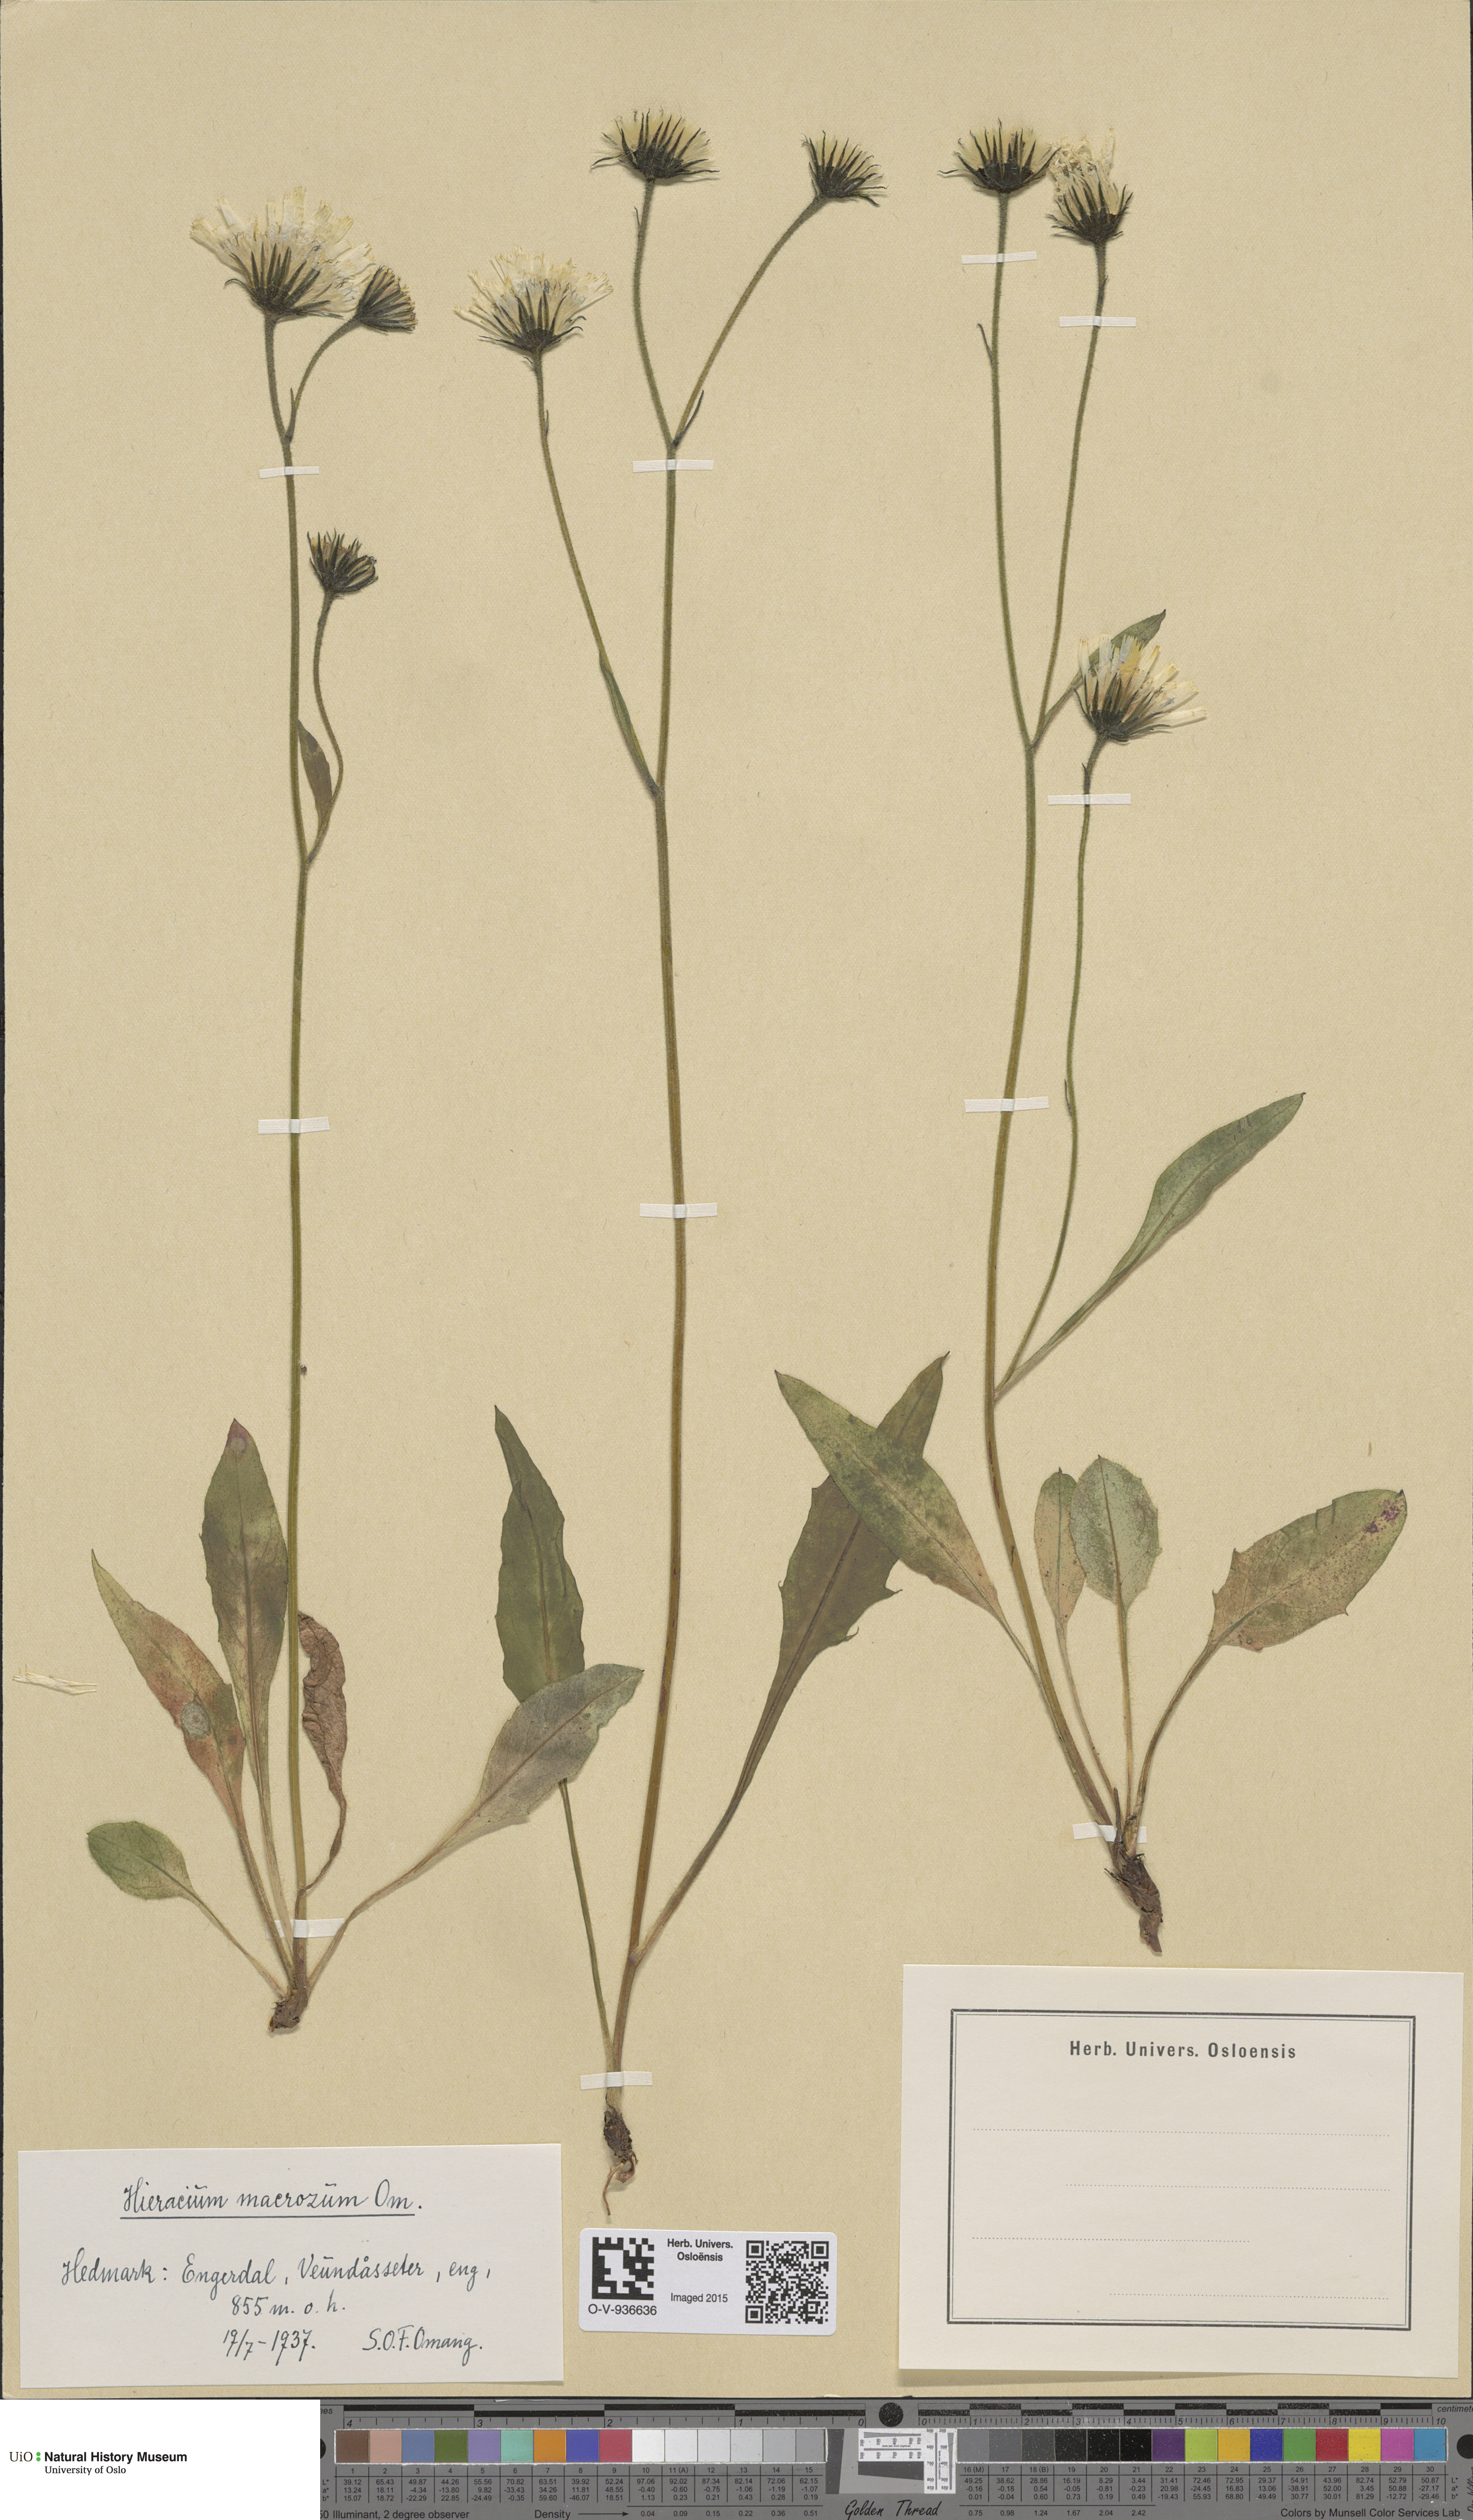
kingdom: Plantae
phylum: Tracheophyta
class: Magnoliopsida
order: Asterales
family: Asteraceae
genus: Hieracium
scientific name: Hieracium
